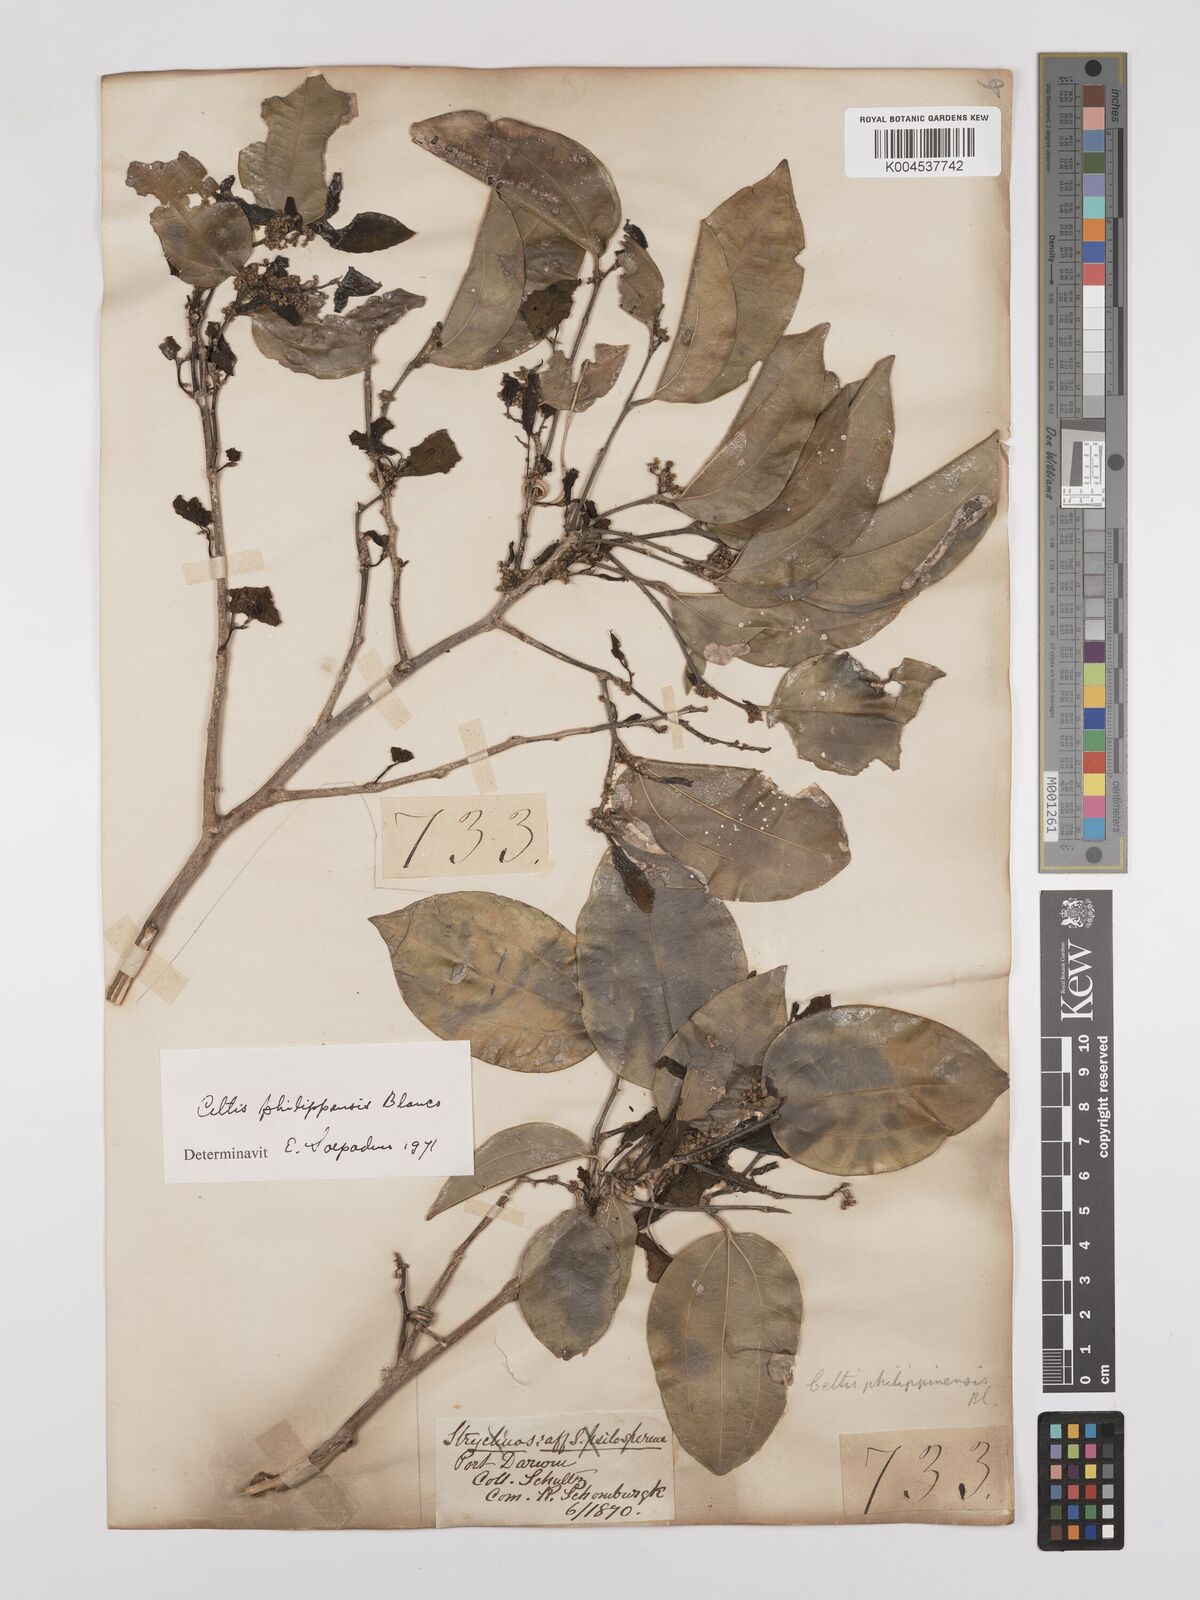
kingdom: Plantae
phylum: Tracheophyta
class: Magnoliopsida
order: Rosales
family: Cannabaceae
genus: Celtis
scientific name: Celtis philippensis
